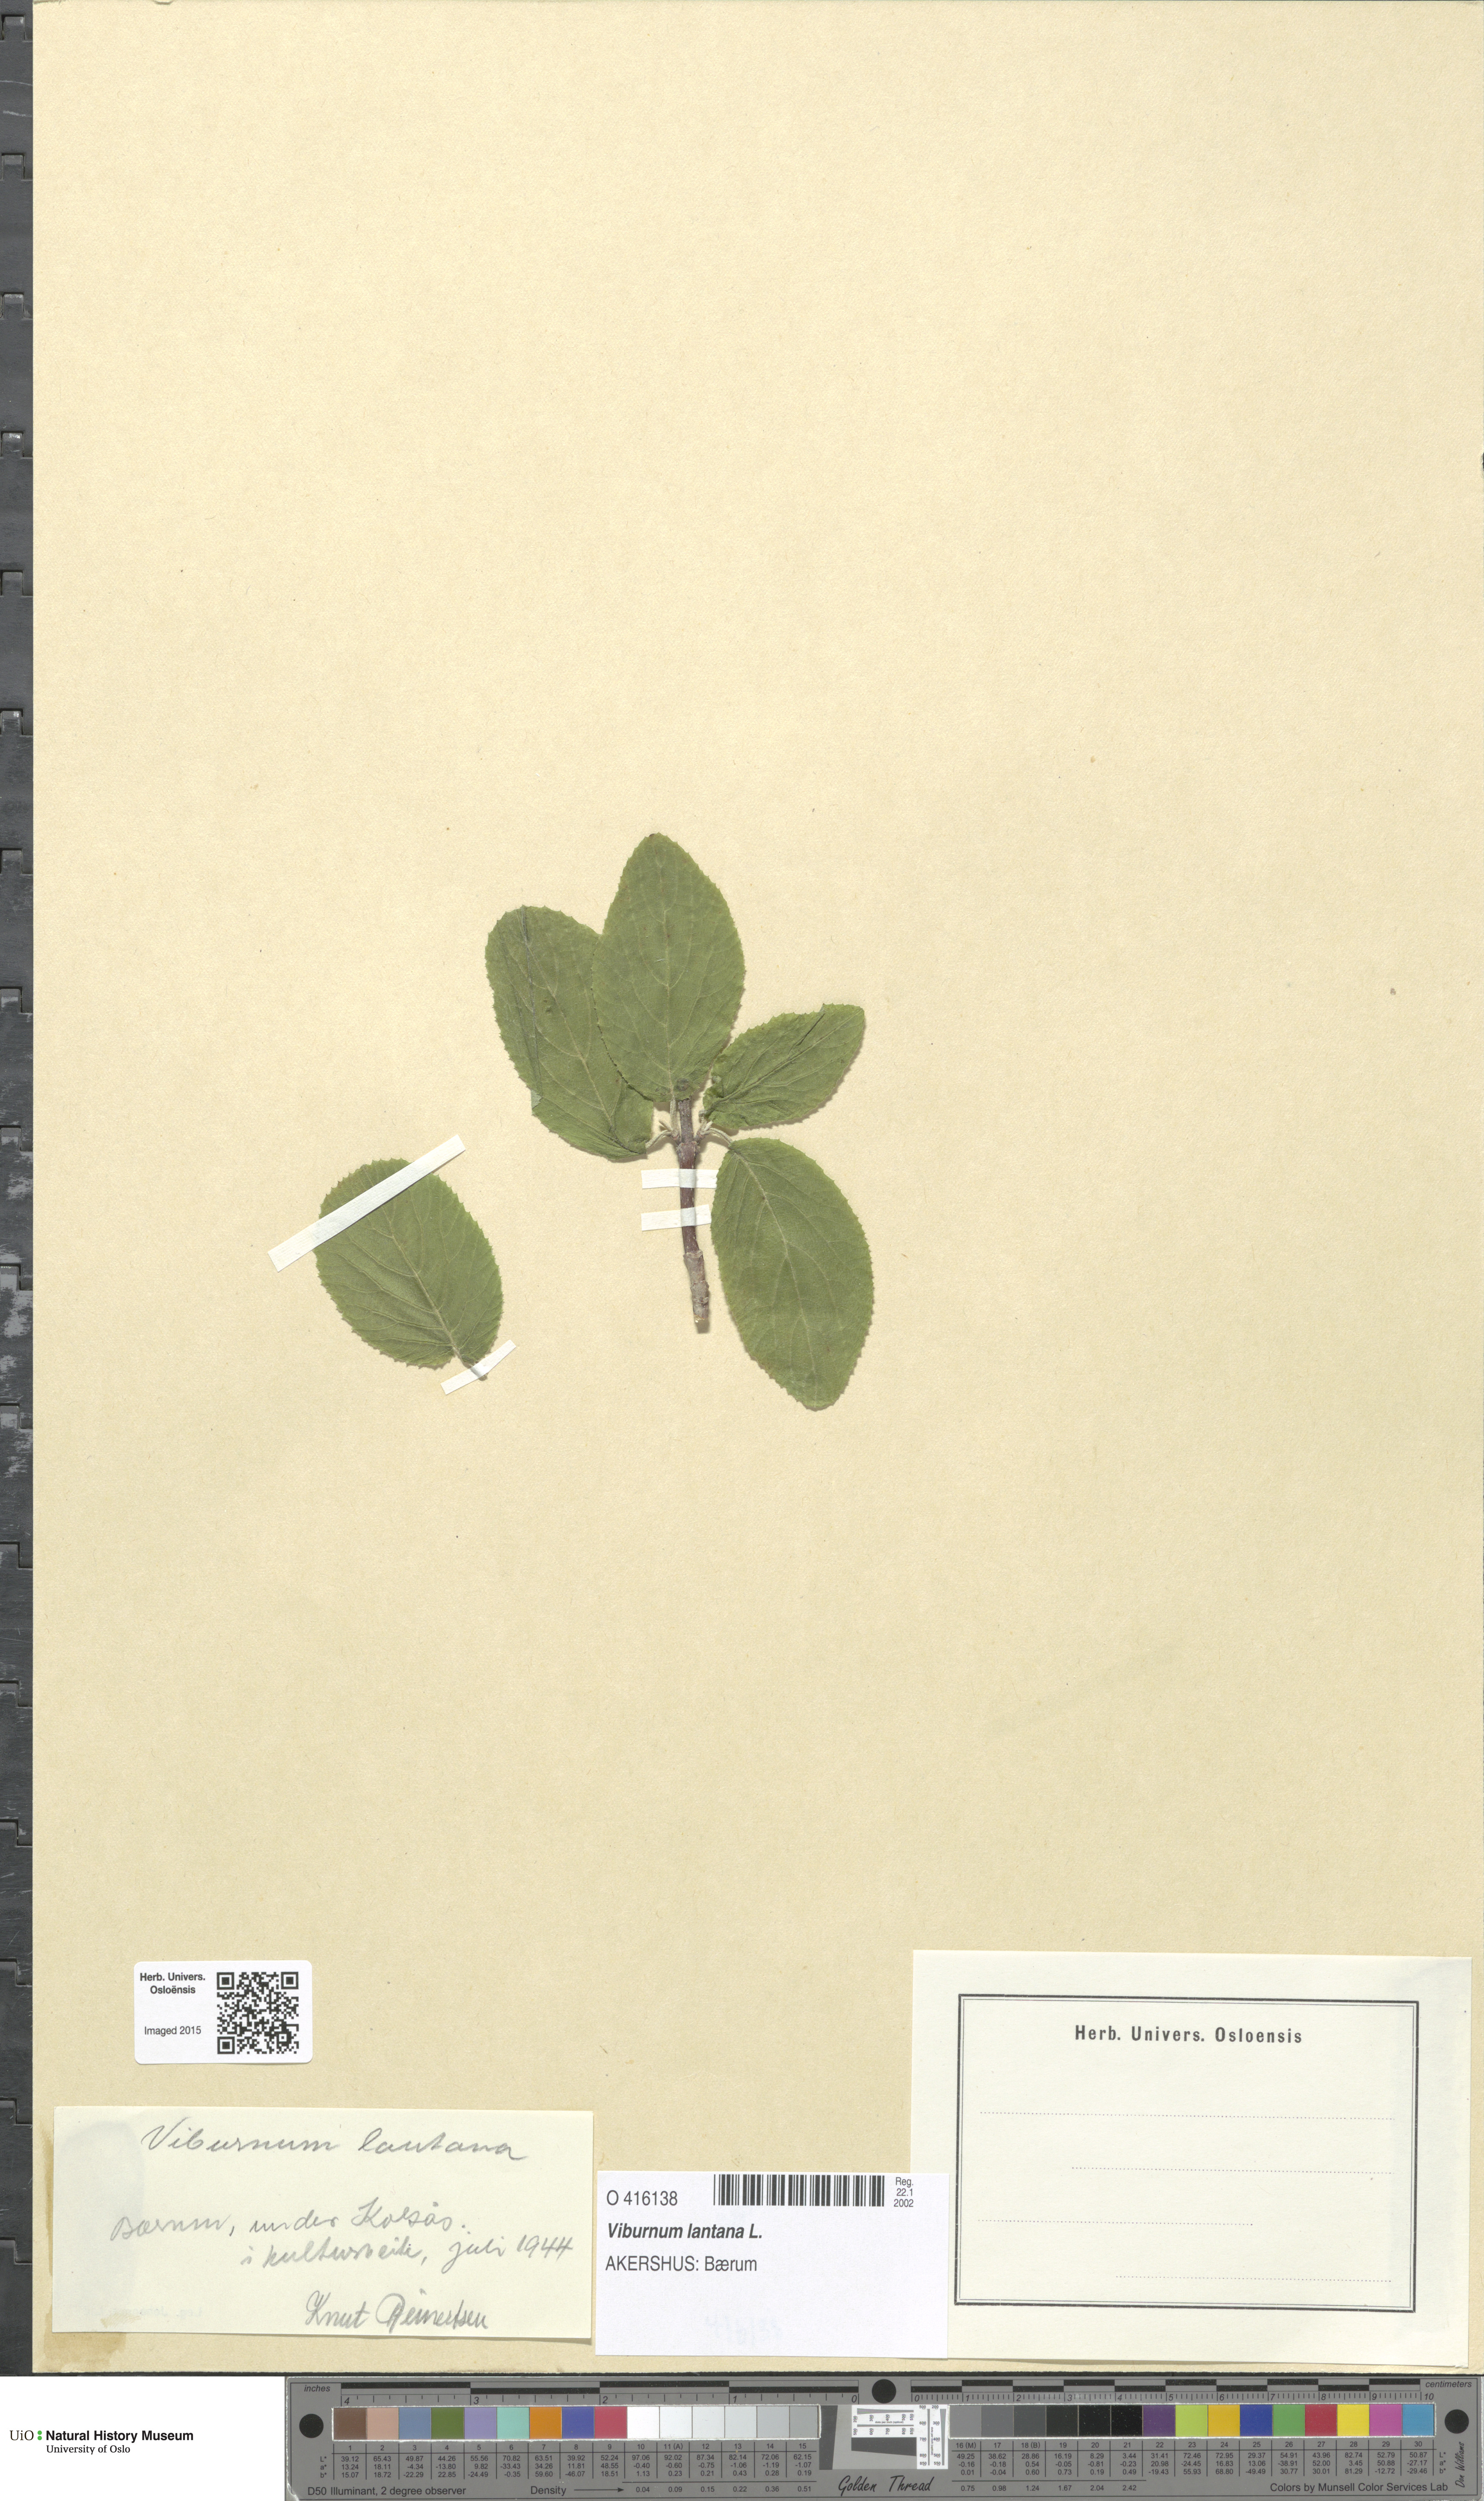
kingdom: Plantae
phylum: Tracheophyta
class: Magnoliopsida
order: Dipsacales
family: Viburnaceae
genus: Viburnum
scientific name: Viburnum lantana
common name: Wayfaring tree
